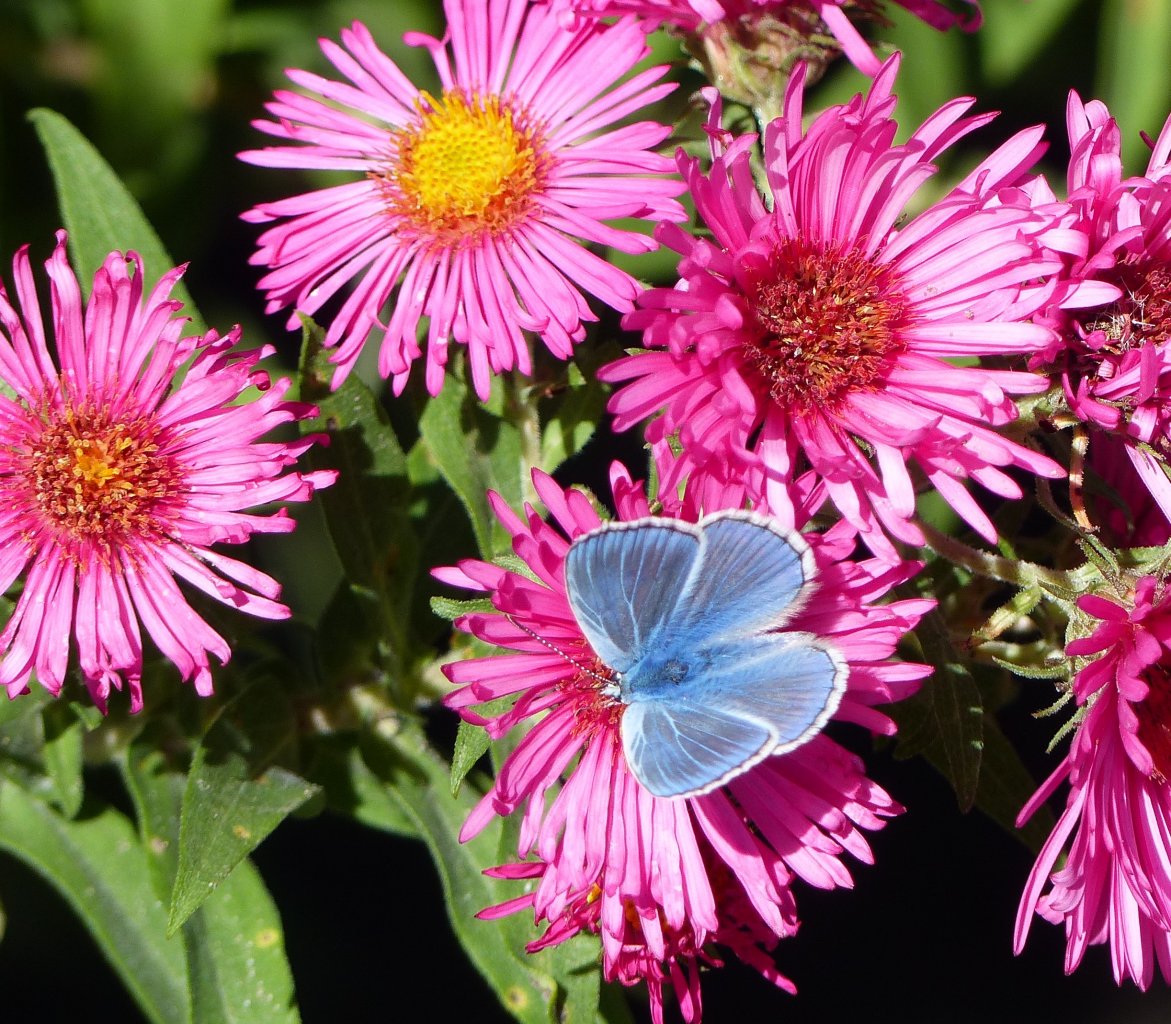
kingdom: Animalia
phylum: Arthropoda
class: Insecta
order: Lepidoptera
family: Lycaenidae
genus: Polyommatus
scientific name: Polyommatus icarus
